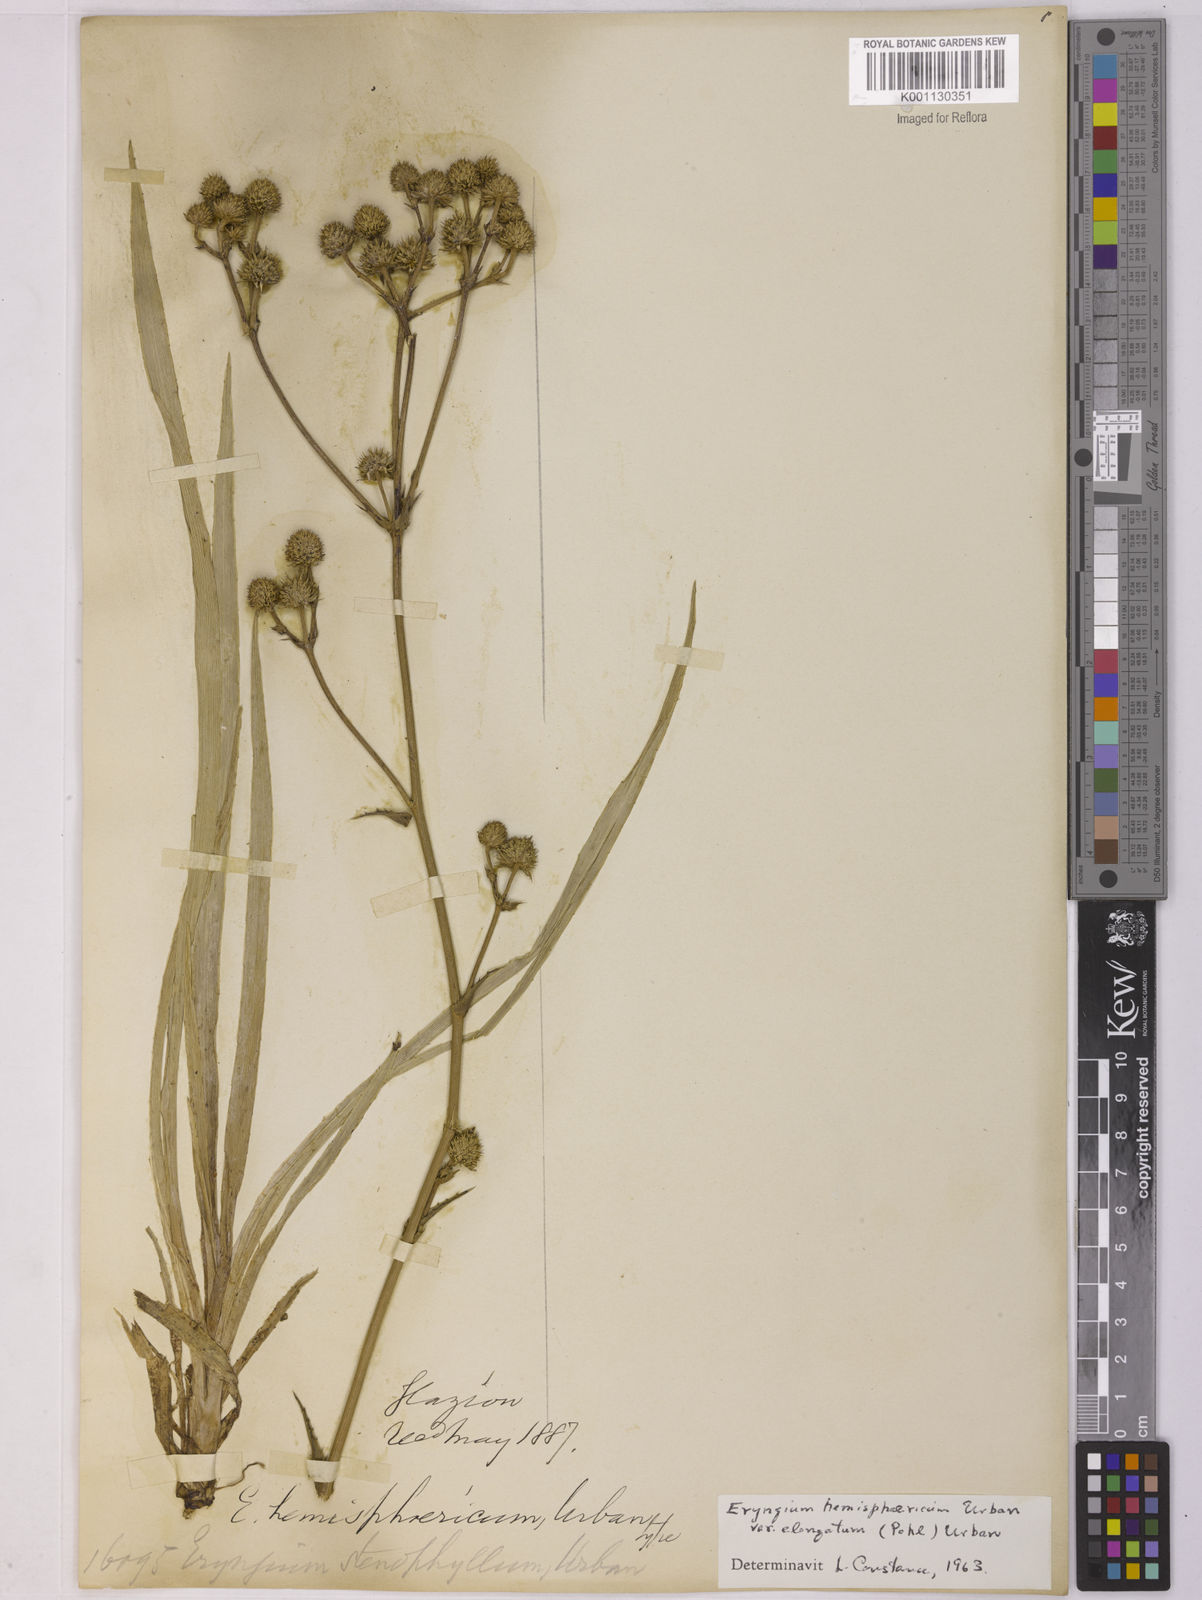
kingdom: Plantae
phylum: Tracheophyta
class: Magnoliopsida
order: Apiales
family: Apiaceae
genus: Eryngium
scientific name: Eryngium hemisphaericum
